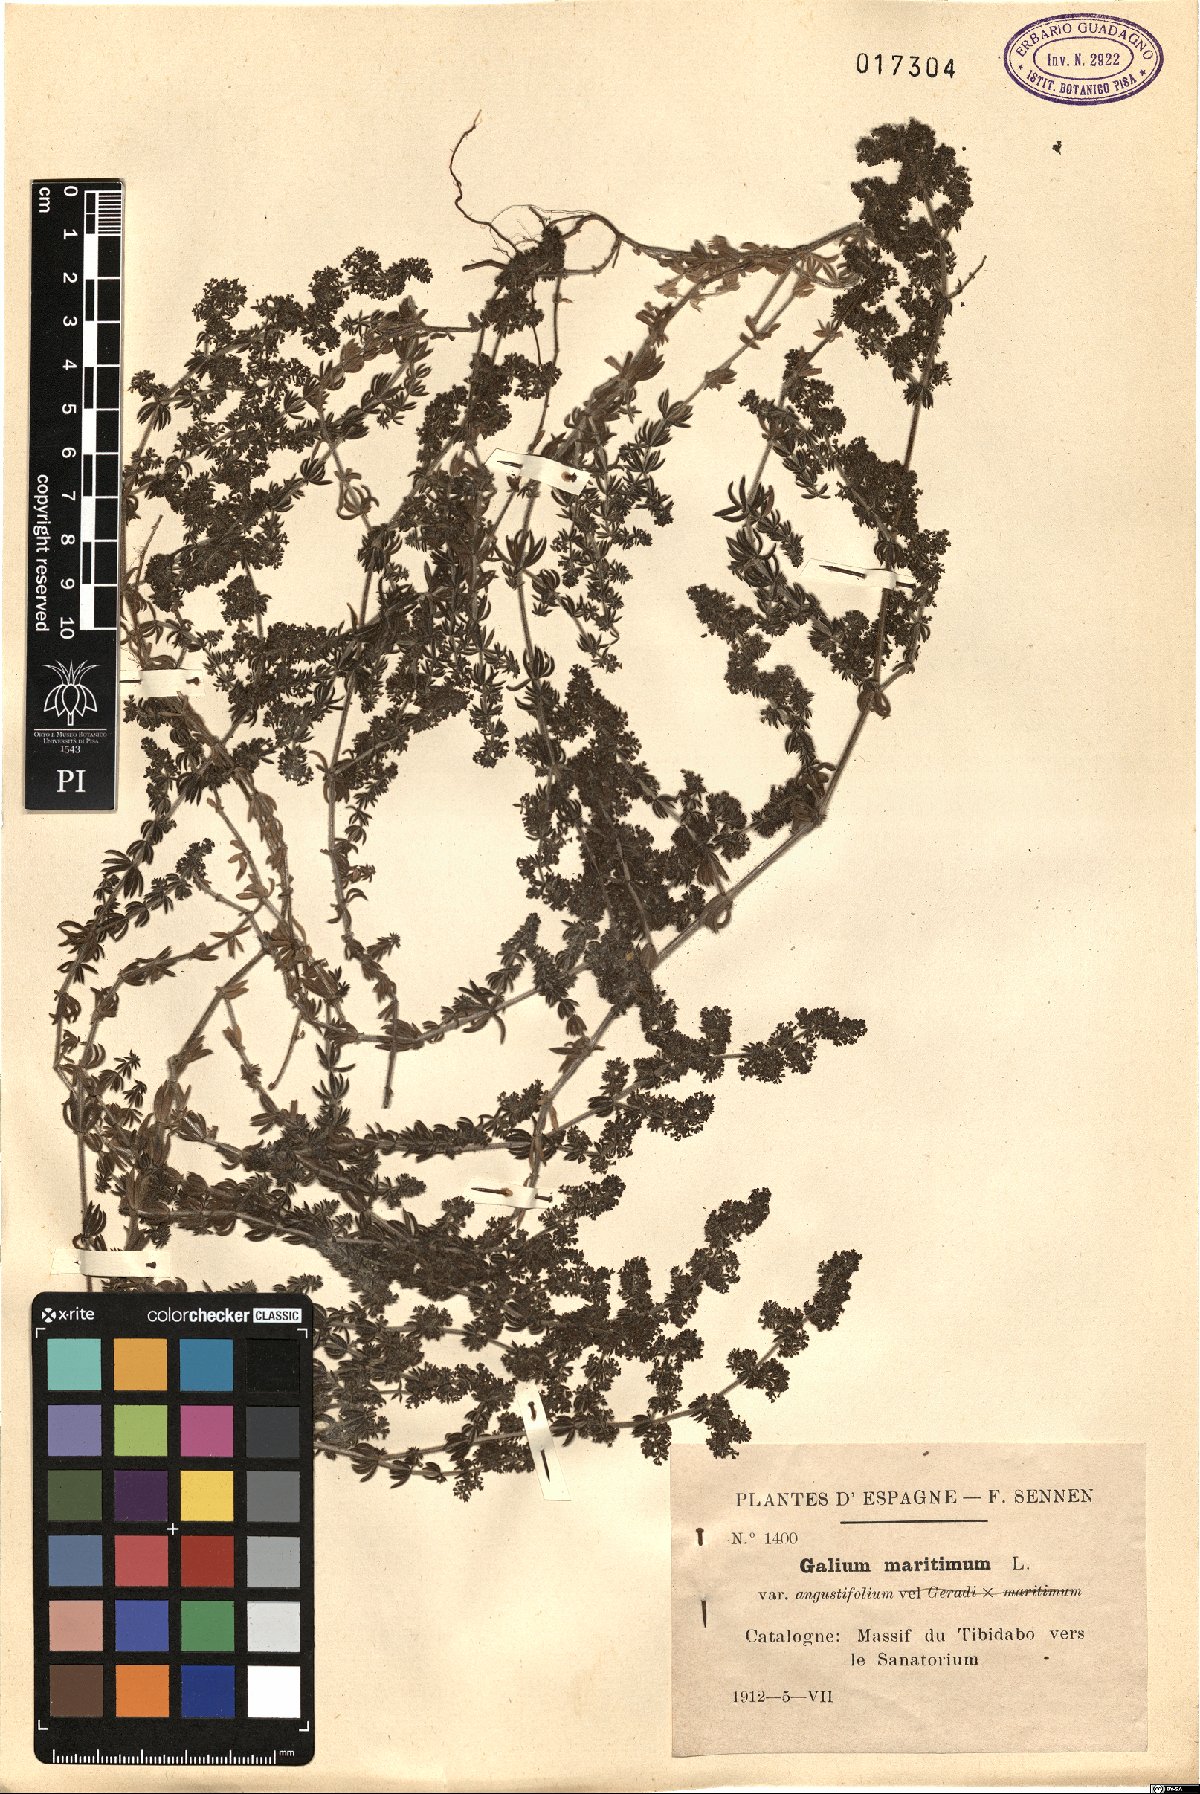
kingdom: Plantae
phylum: Tracheophyta
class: Magnoliopsida
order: Gentianales
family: Rubiaceae
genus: Galium
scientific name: Galium maritimum
